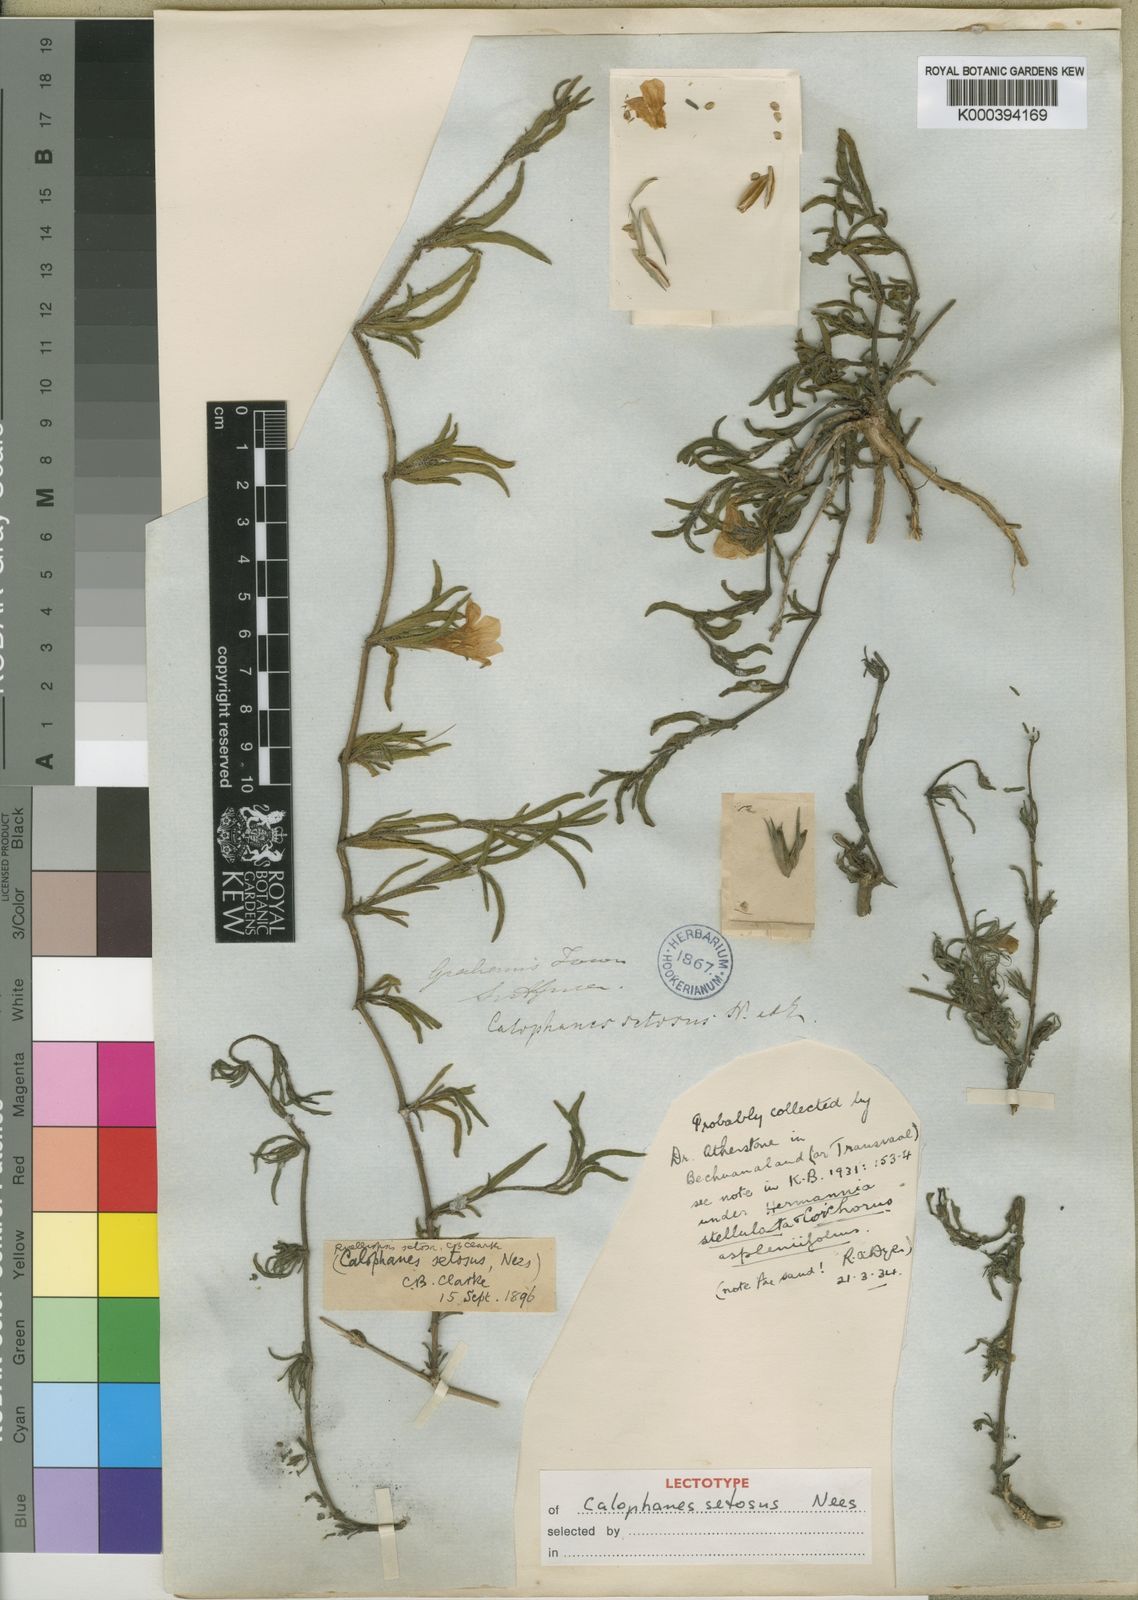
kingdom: Plantae
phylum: Tracheophyta
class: Magnoliopsida
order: Lamiales
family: Acanthaceae
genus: Ruelliopsis
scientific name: Ruelliopsis setosa
